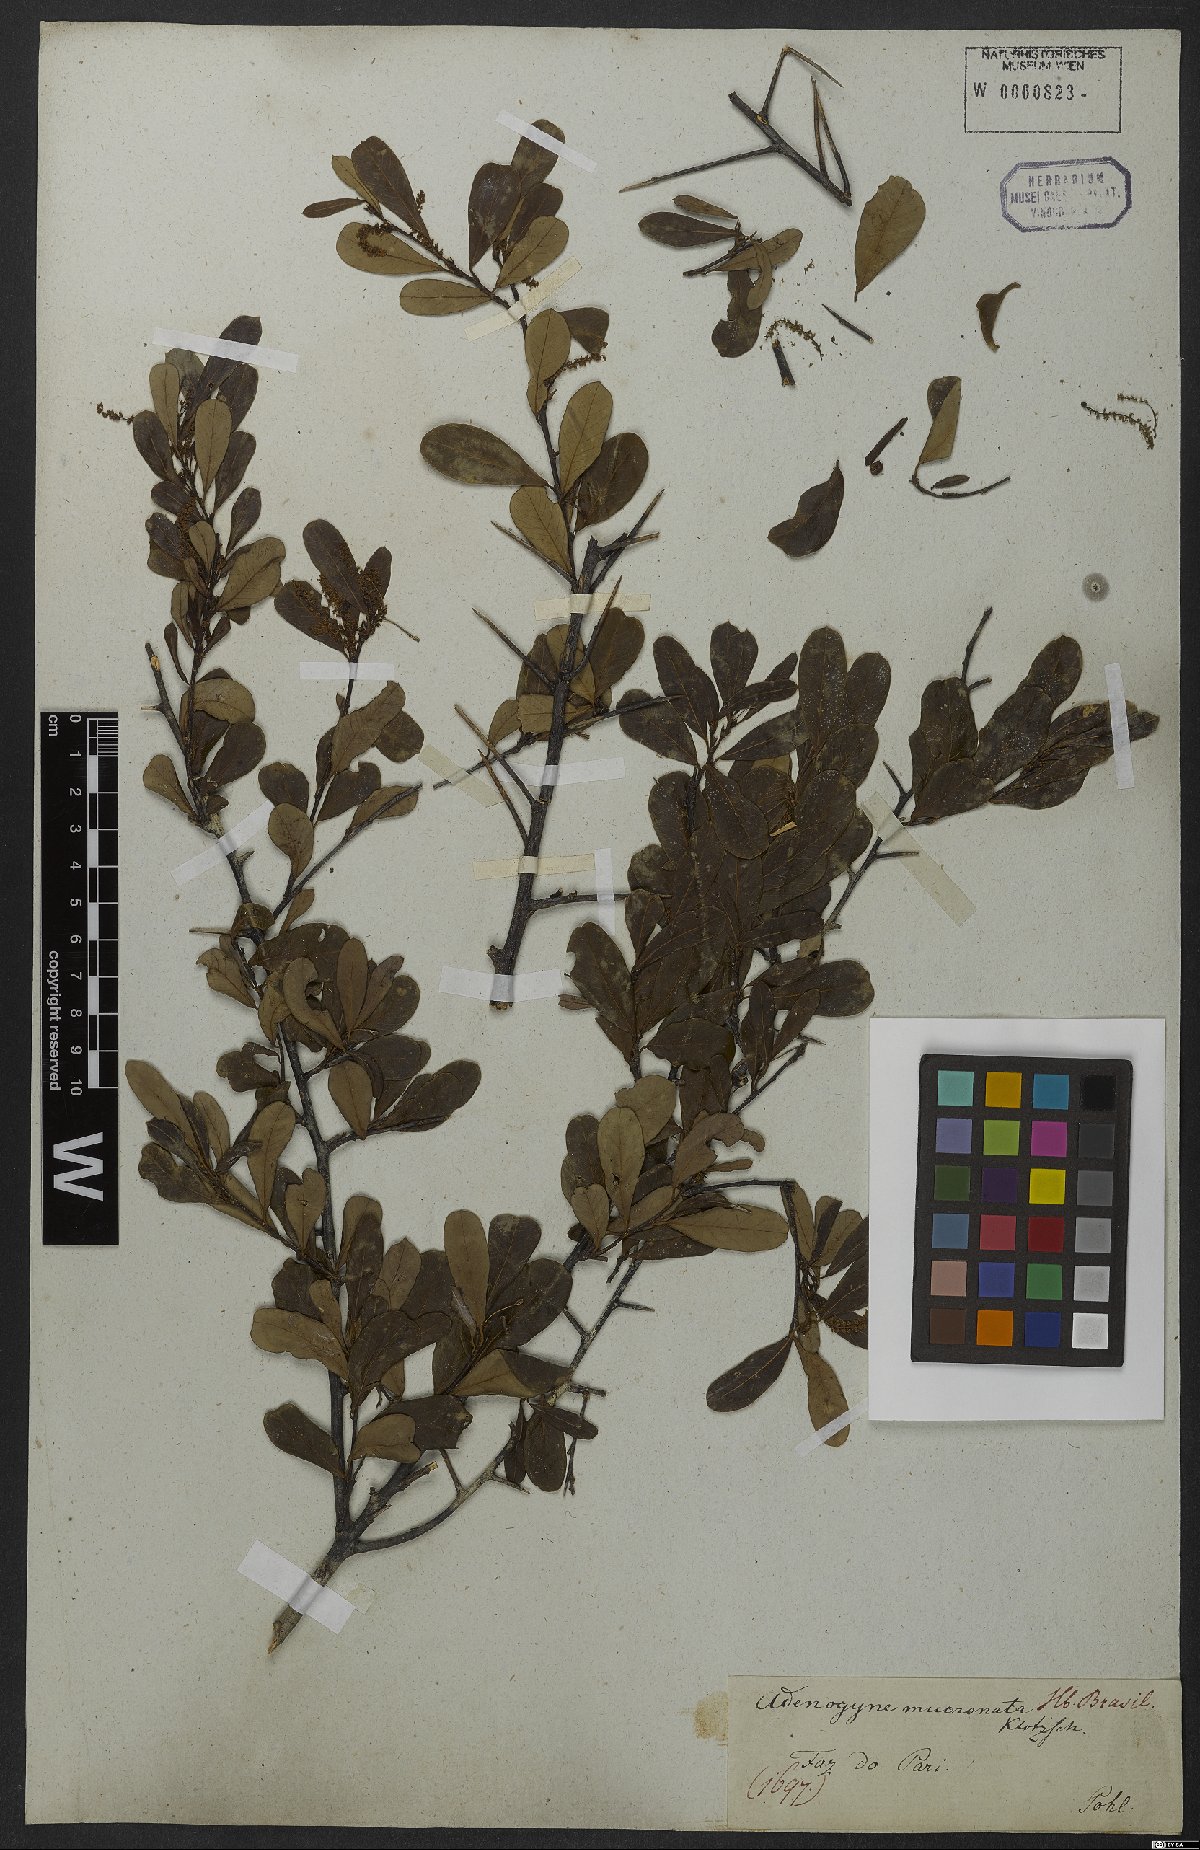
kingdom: Plantae
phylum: Tracheophyta
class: Magnoliopsida
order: Malpighiales
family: Euphorbiaceae
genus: Sebastiania
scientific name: Sebastiania schottiana
